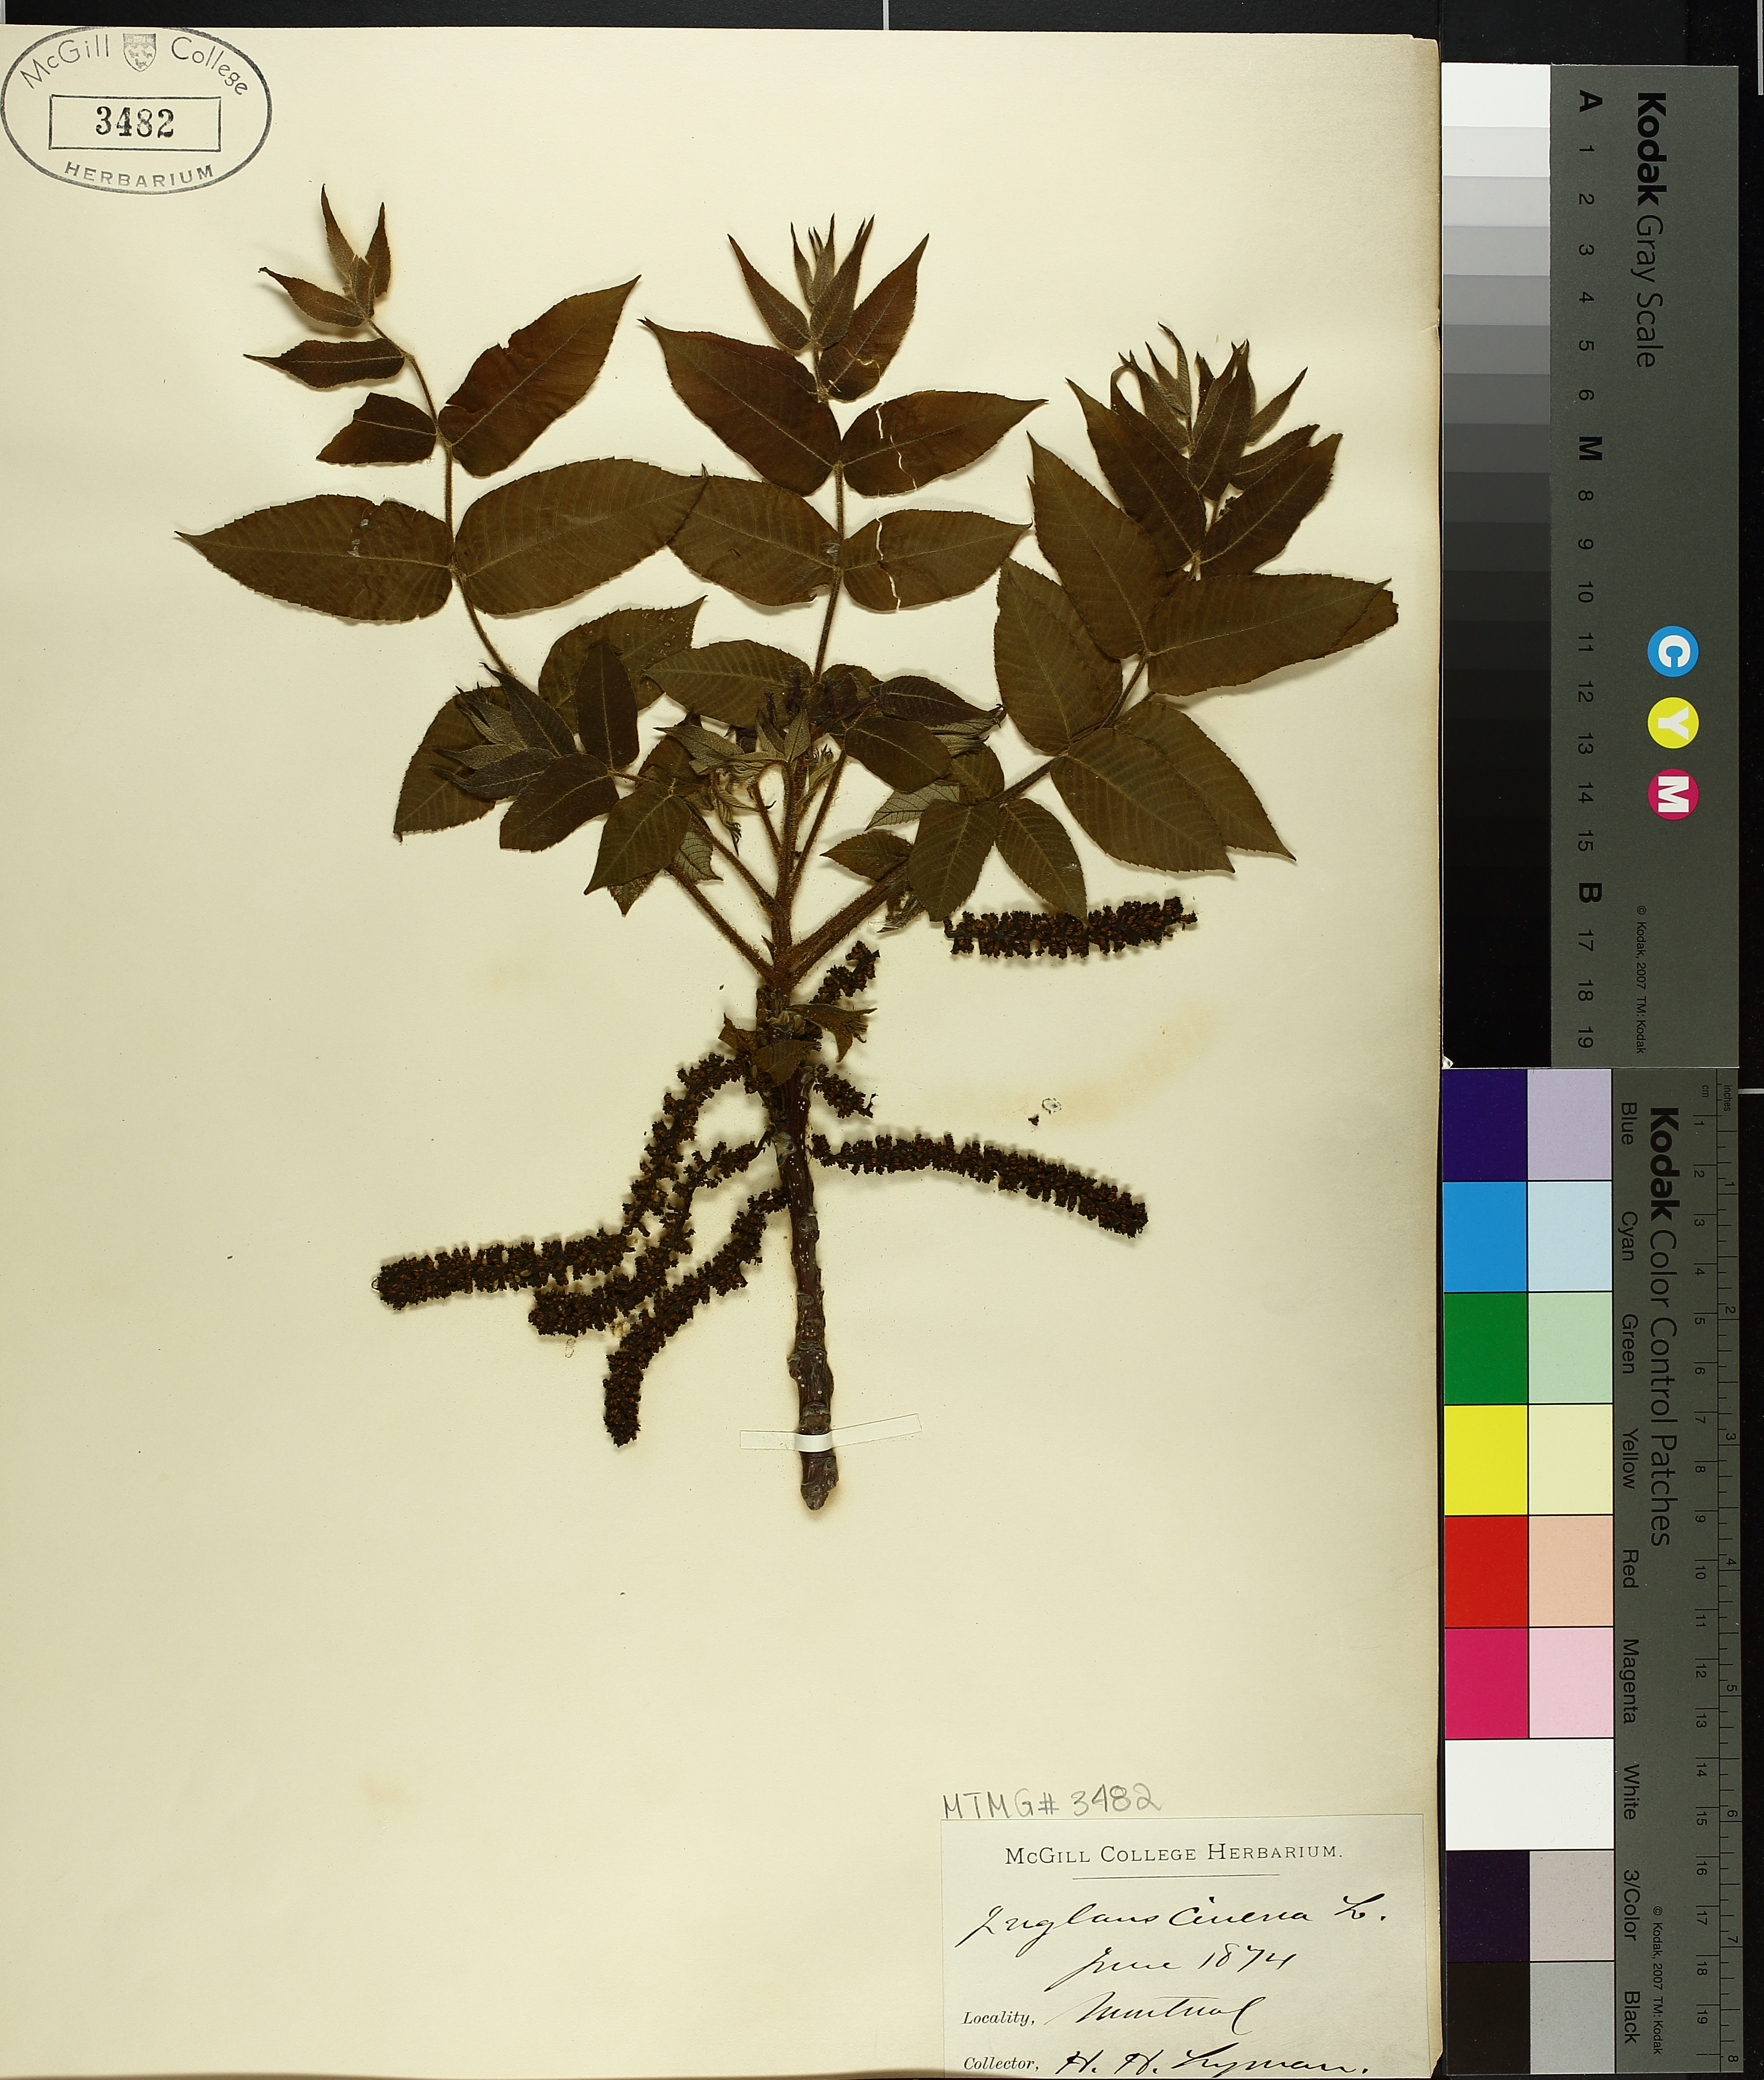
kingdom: Plantae
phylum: Tracheophyta
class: Magnoliopsida
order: Fagales
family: Juglandaceae
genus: Juglans
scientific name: Juglans cinerea
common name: Butternut
